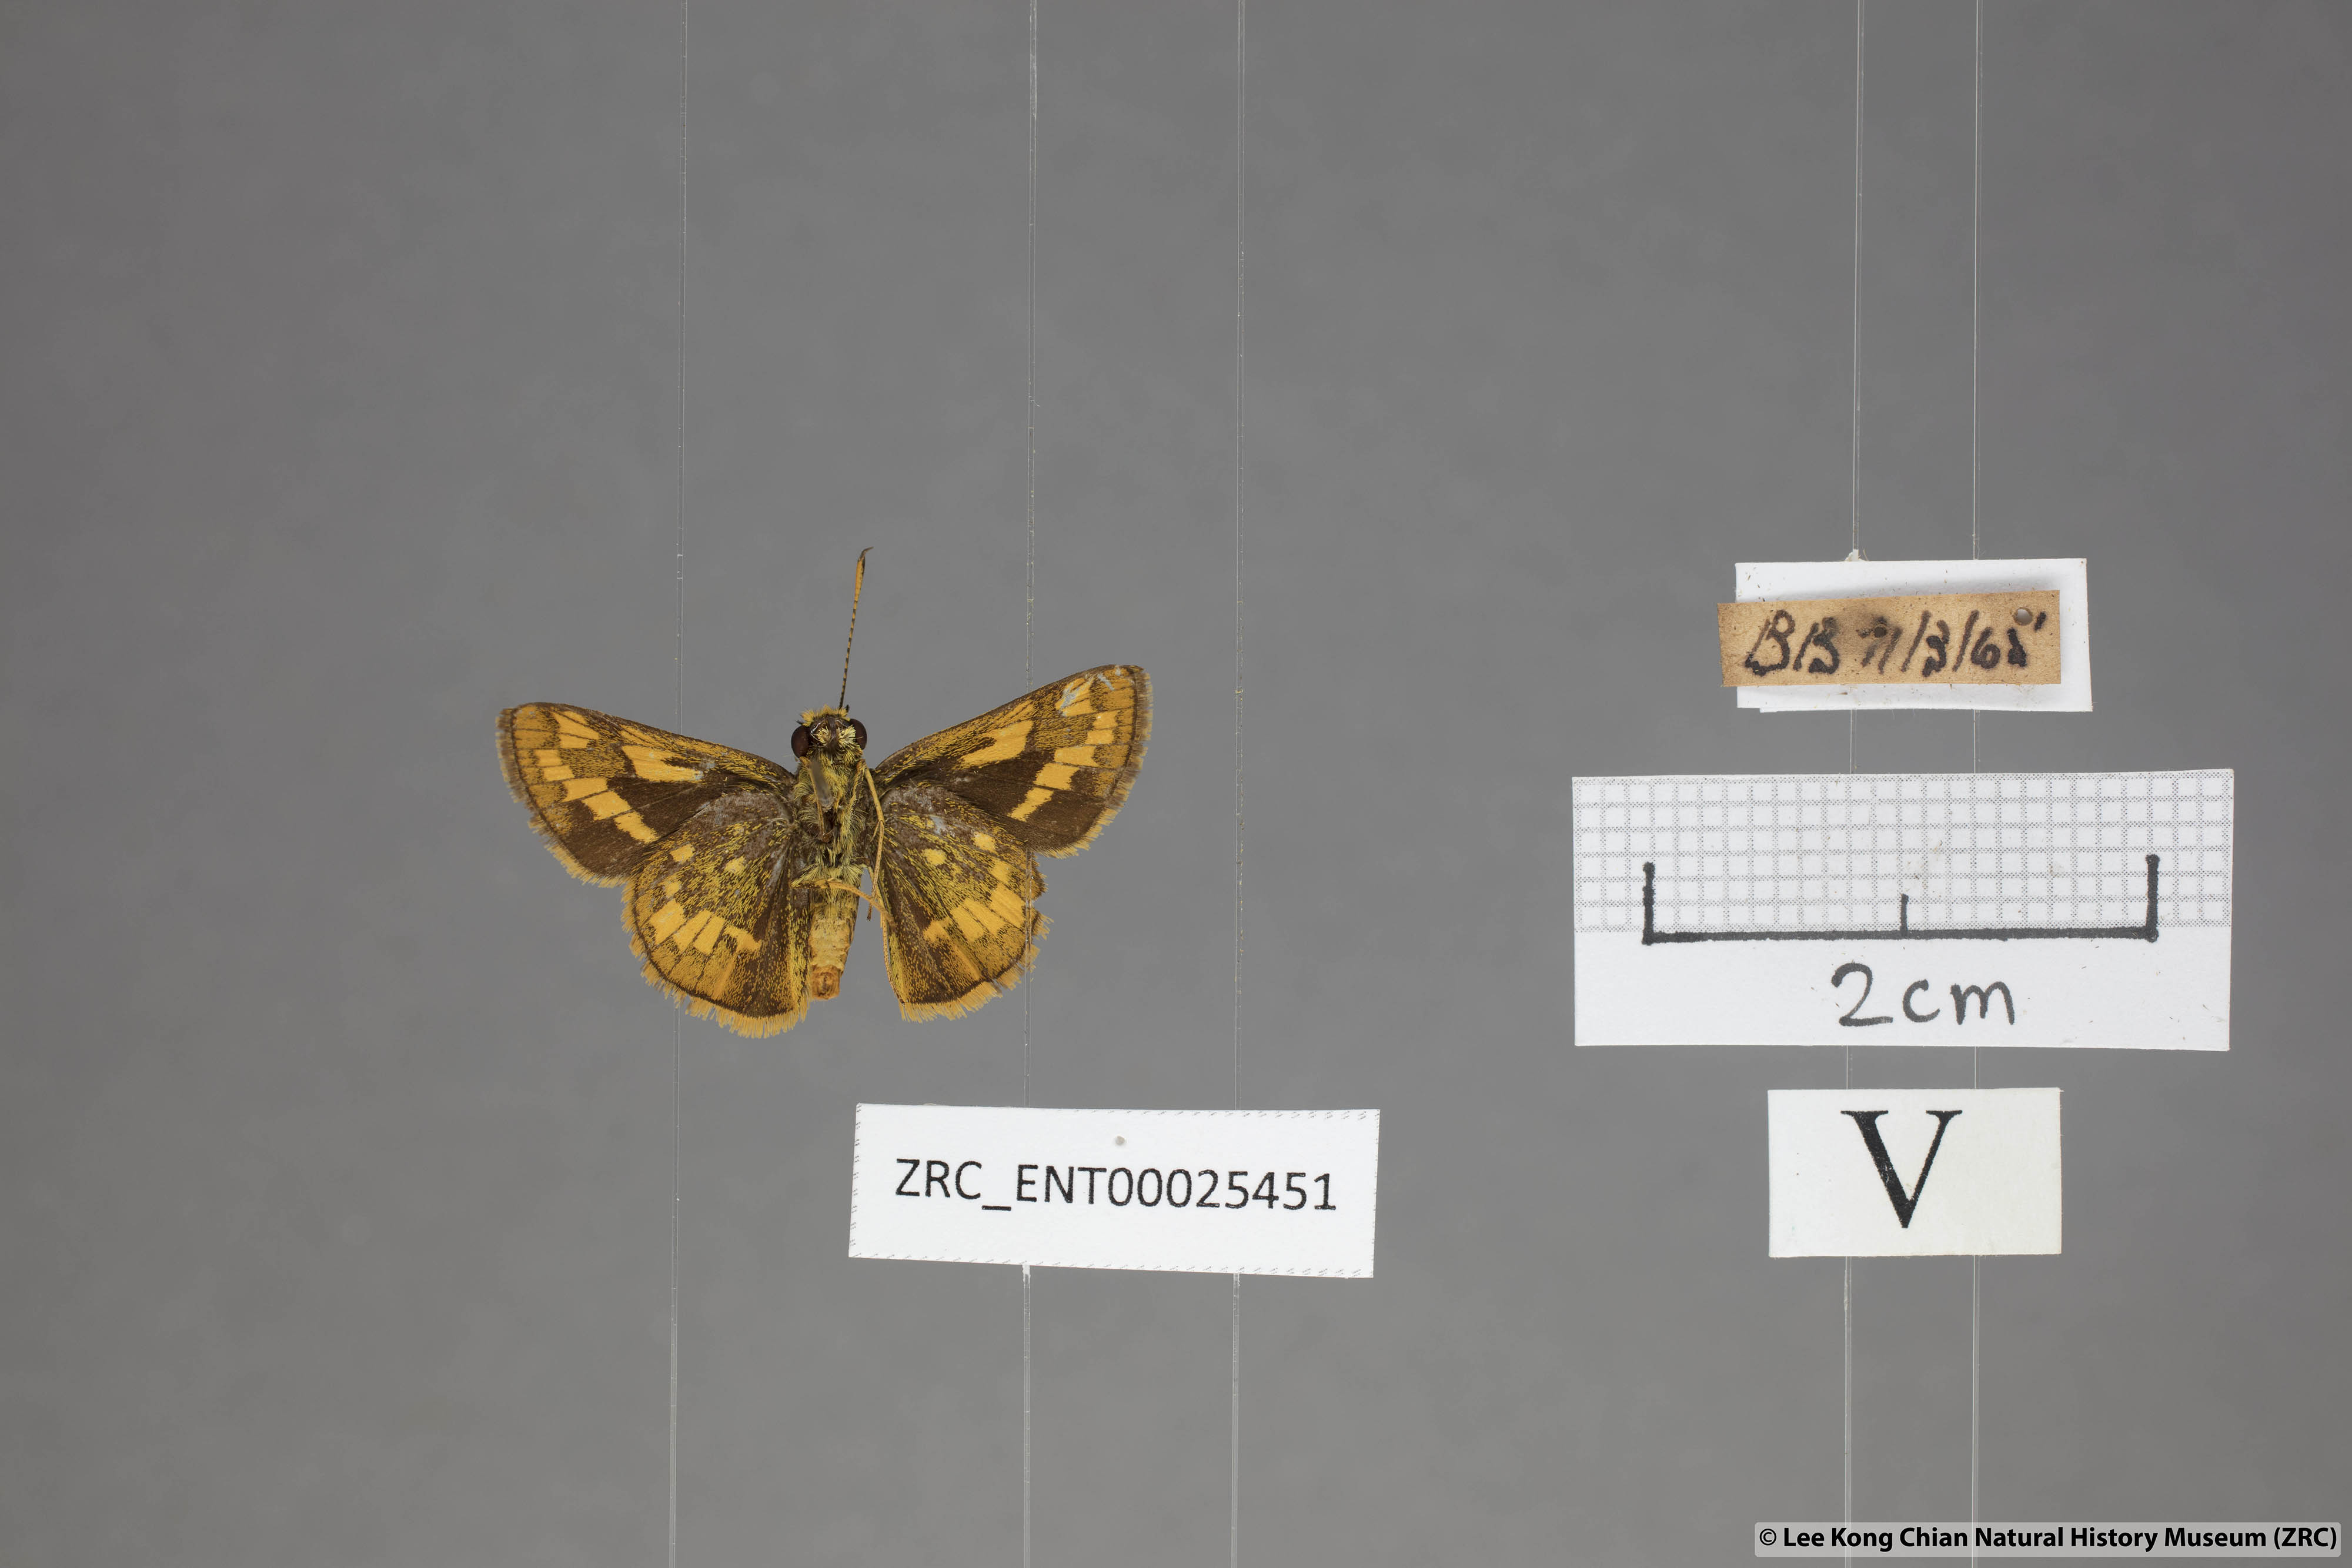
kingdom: Animalia
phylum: Arthropoda
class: Insecta
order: Lepidoptera
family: Hesperiidae
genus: Potanthus
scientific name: Potanthus omaha
